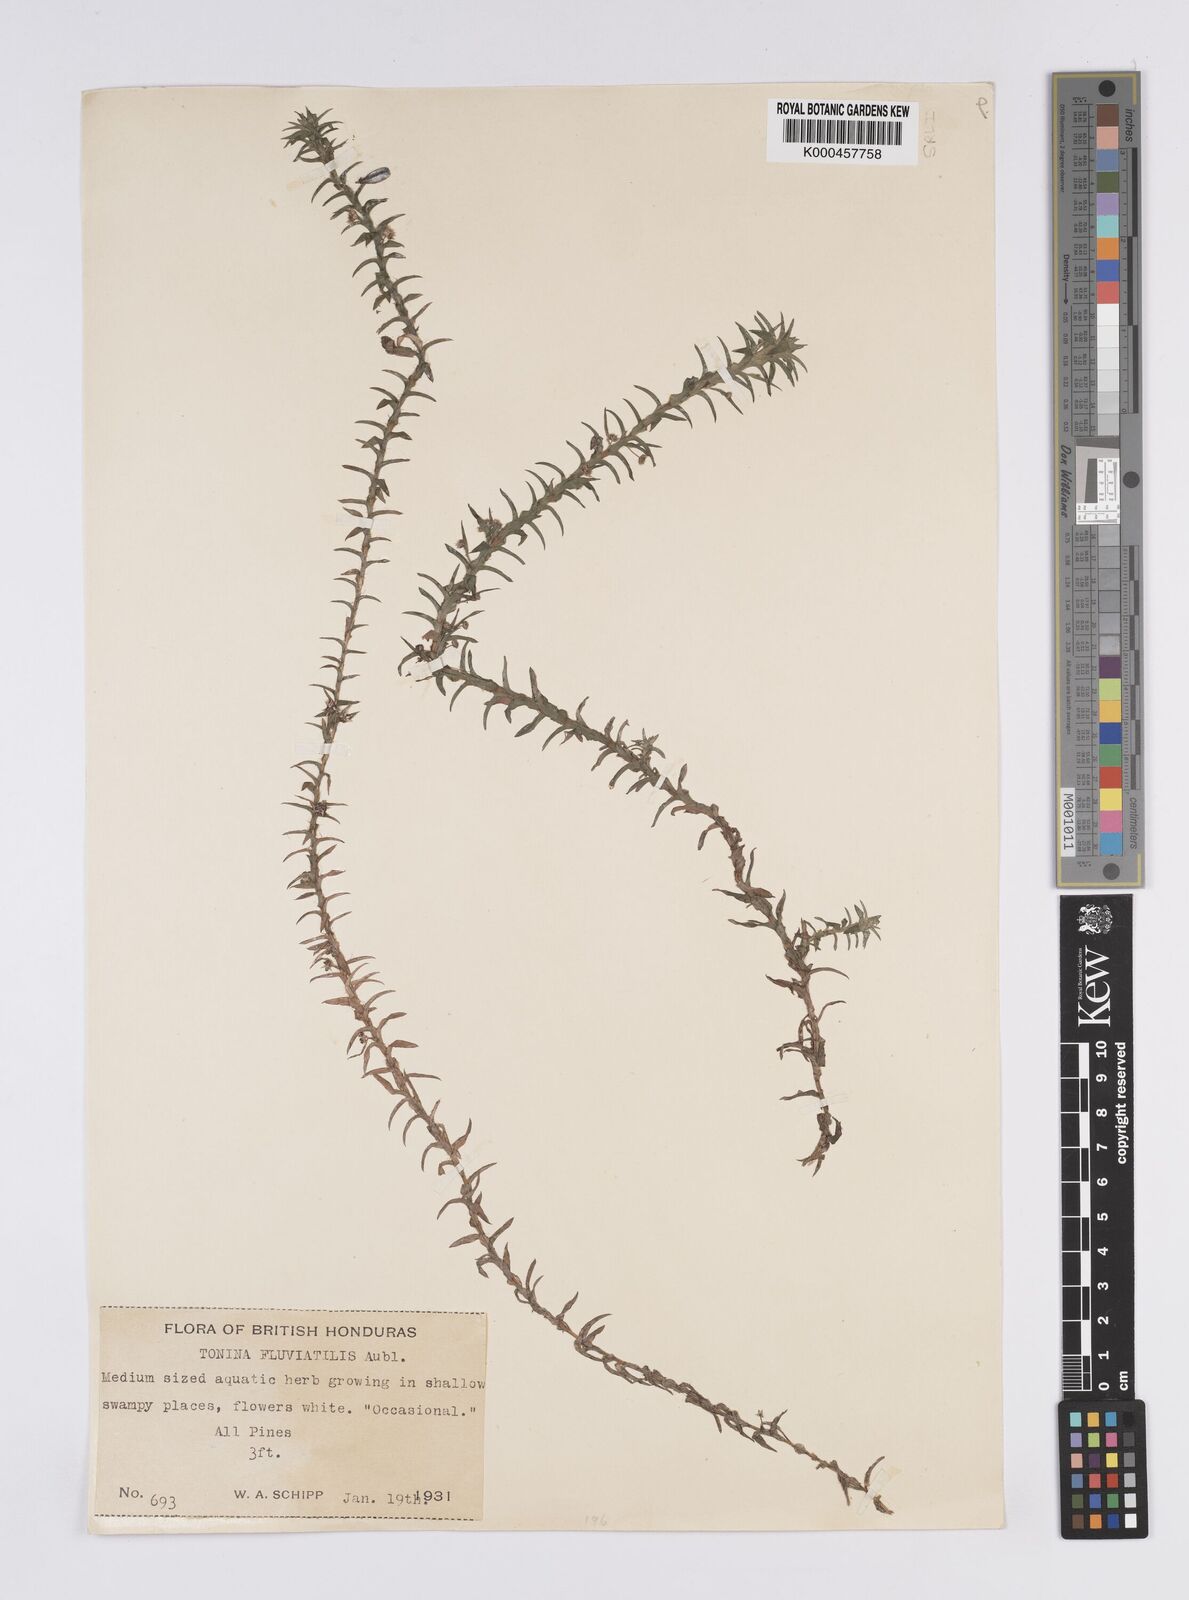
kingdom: Plantae
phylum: Tracheophyta
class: Liliopsida
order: Poales
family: Eriocaulaceae
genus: Paepalanthus
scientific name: Paepalanthus fluviatilis
